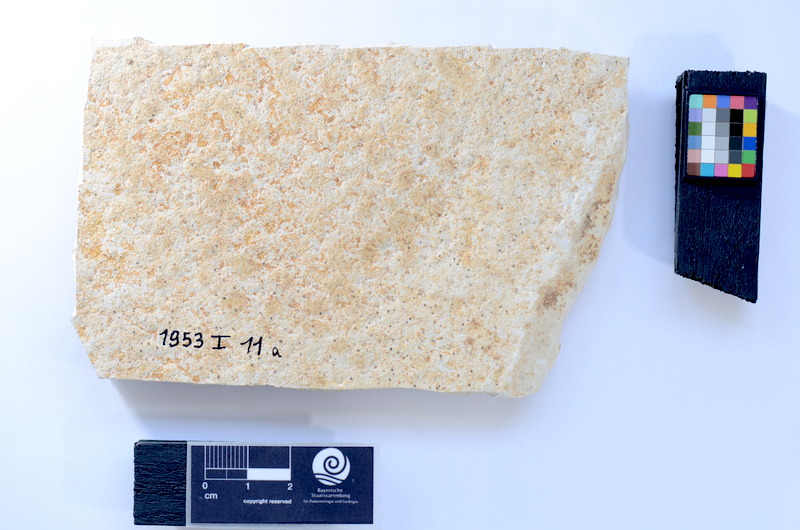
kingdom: Animalia
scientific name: Animalia
